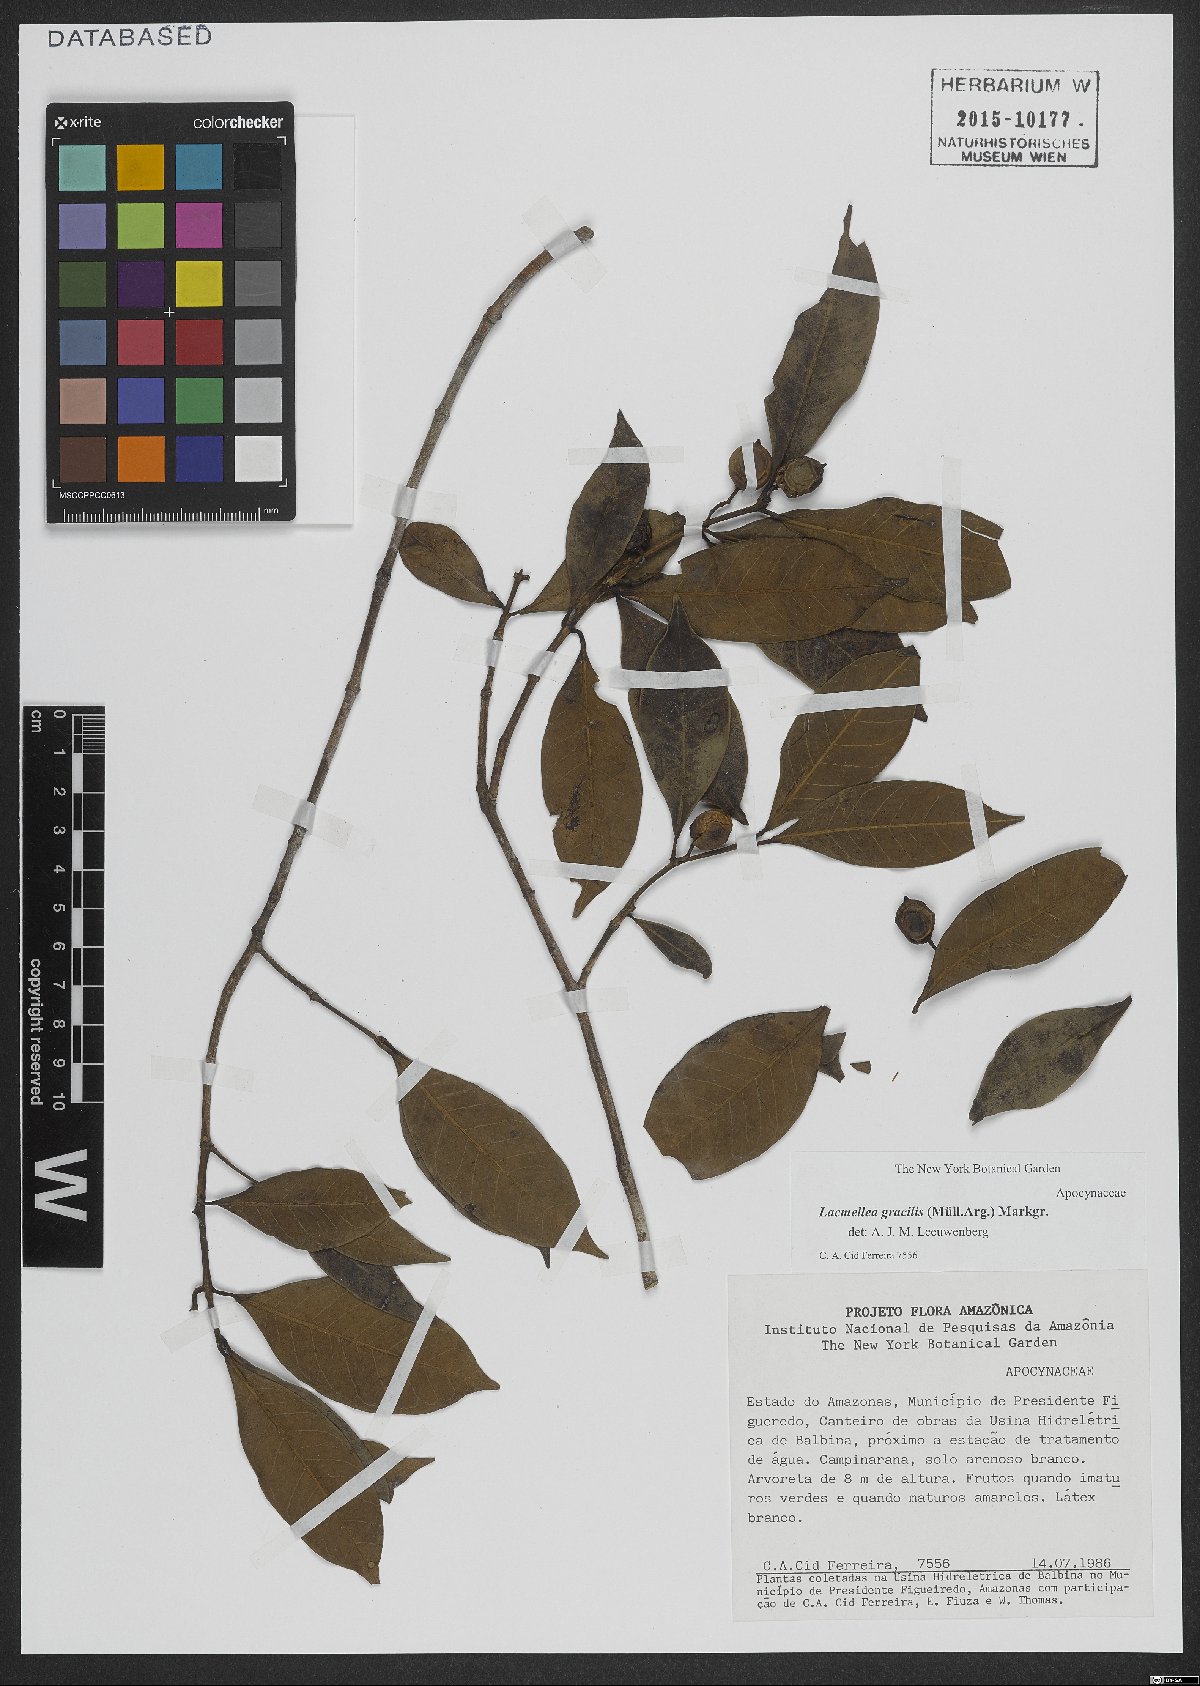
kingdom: Plantae
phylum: Tracheophyta
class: Magnoliopsida
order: Gentianales
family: Apocynaceae
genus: Lacmellea
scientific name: Lacmellea gracilis
